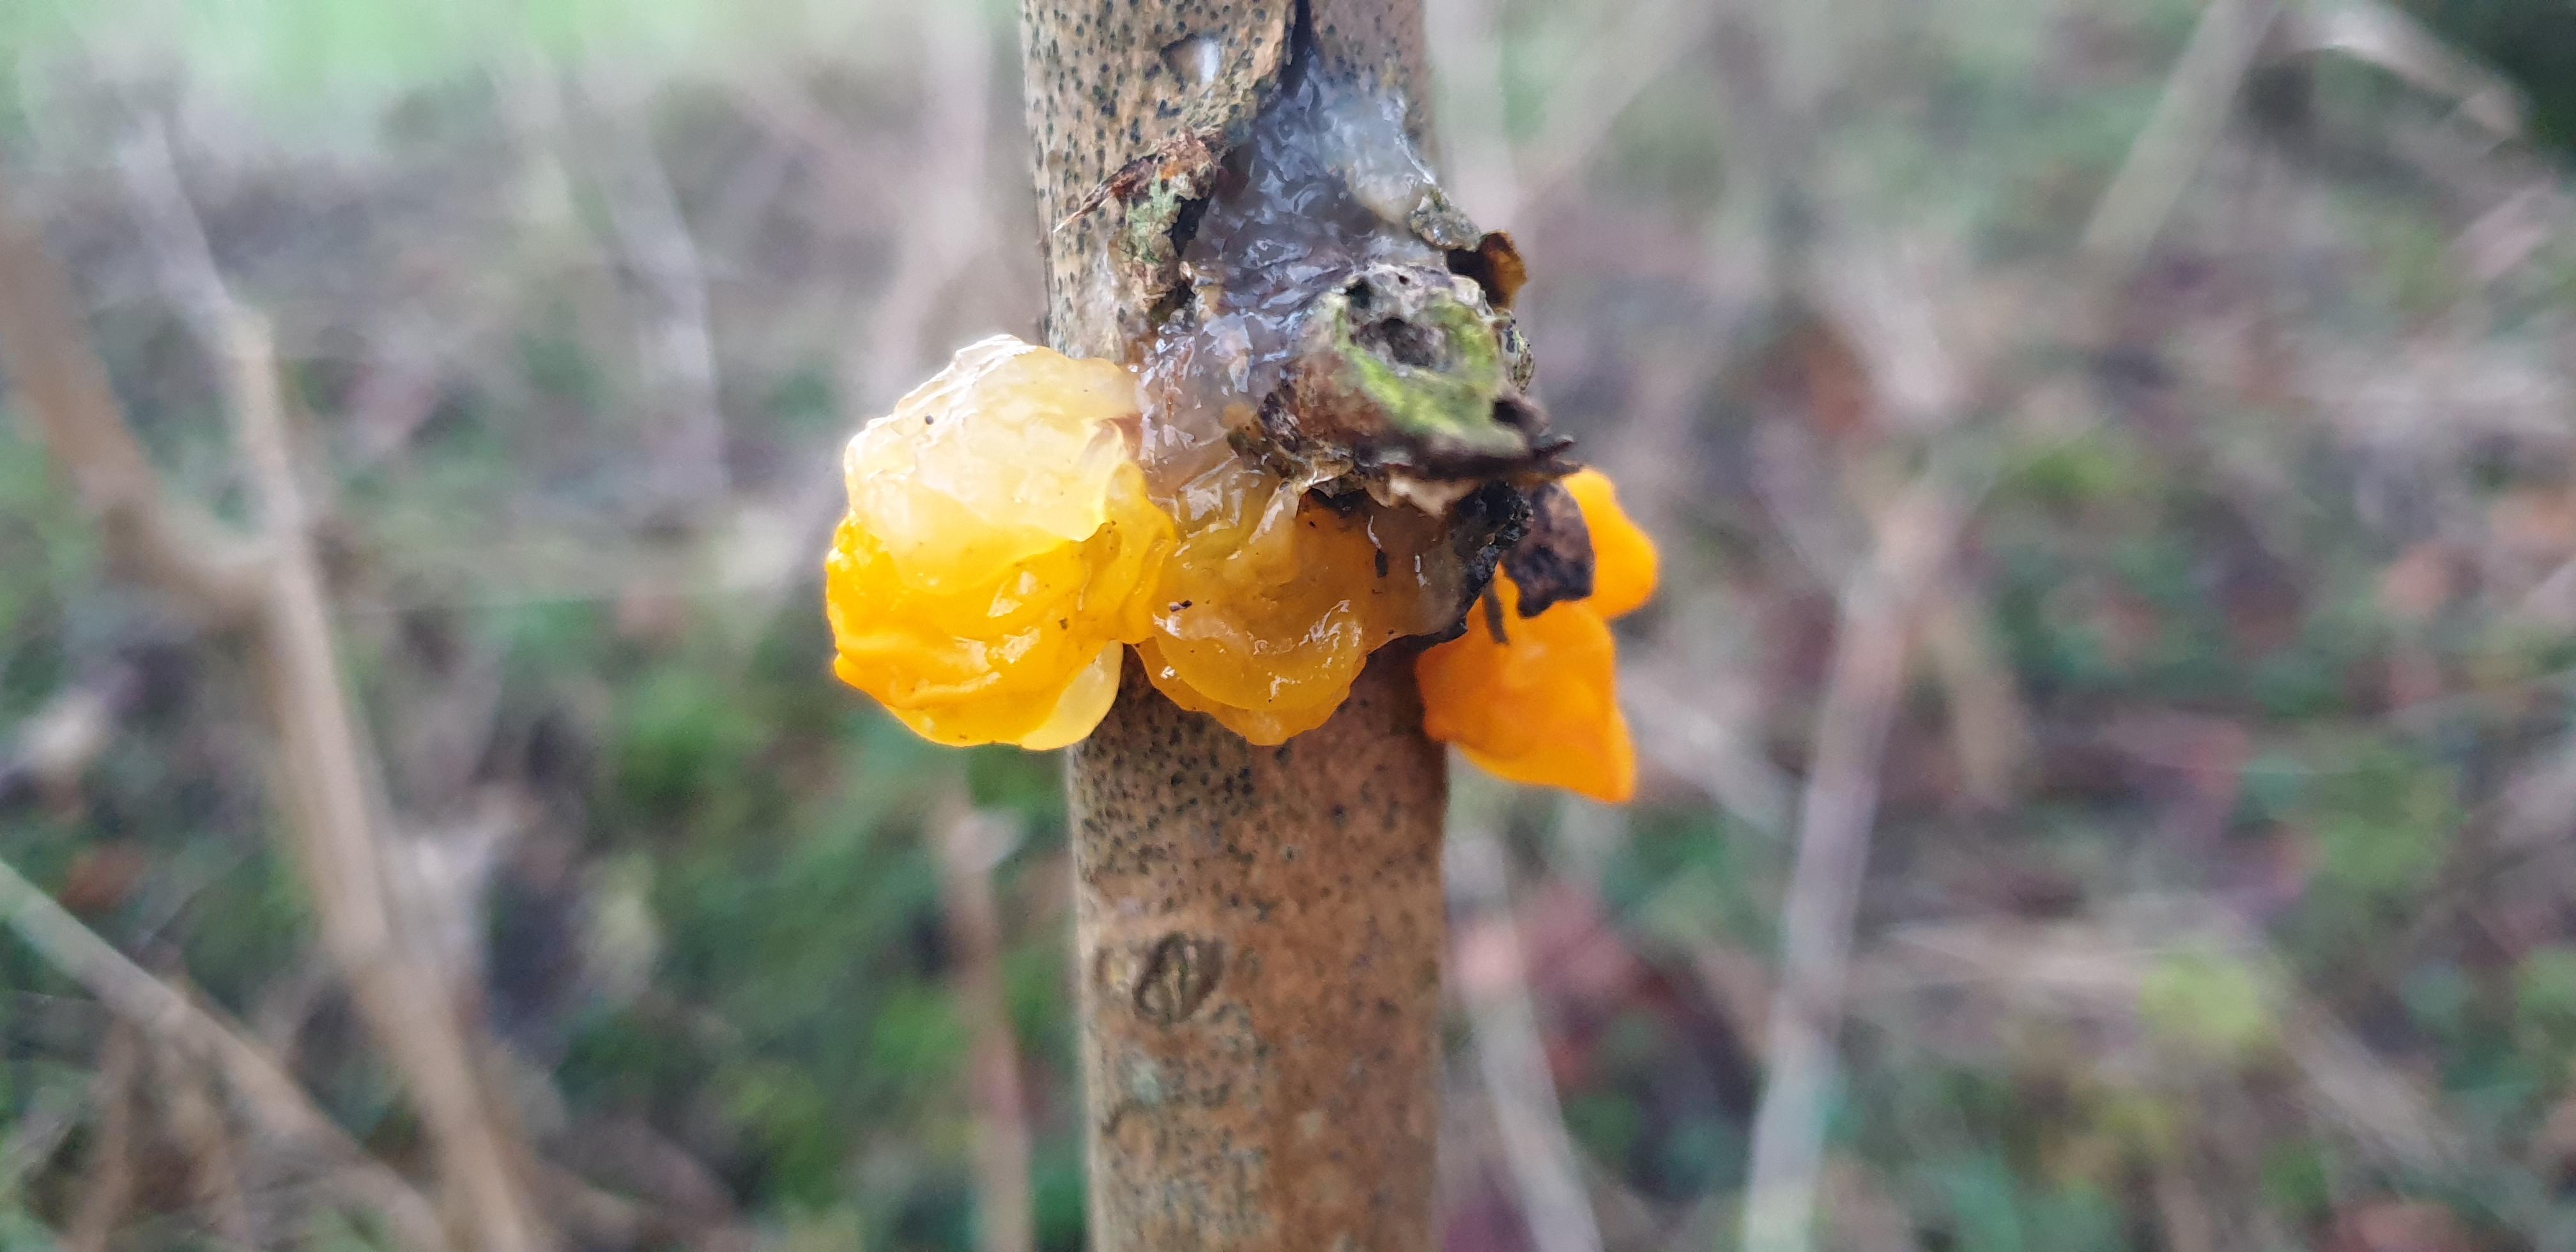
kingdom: Fungi
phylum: Basidiomycota
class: Tremellomycetes
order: Tremellales
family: Tremellaceae
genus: Tremella
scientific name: Tremella mesenterica
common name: gul bævresvamp
